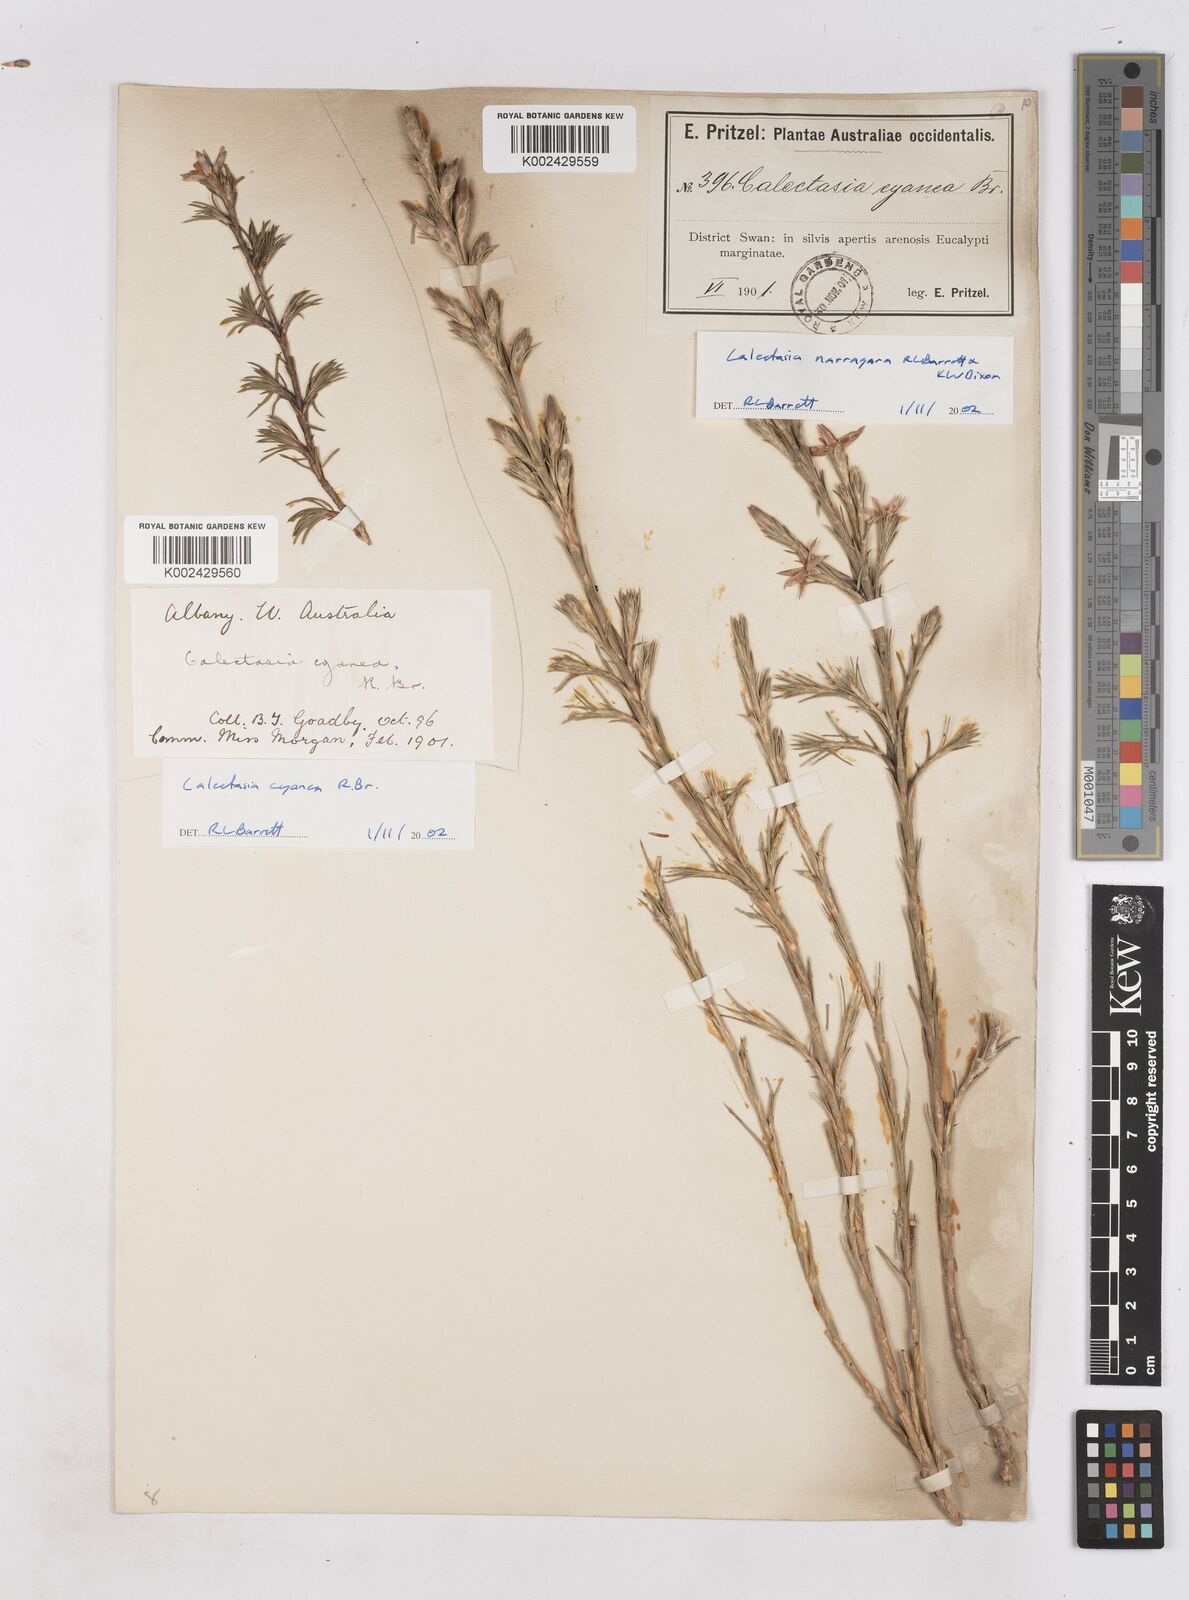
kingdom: Plantae
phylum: Tracheophyta
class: Liliopsida
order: Arecales
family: Dasypogonaceae
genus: Calectasia
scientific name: Calectasia cyanea
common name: Blue tinsel-lily
